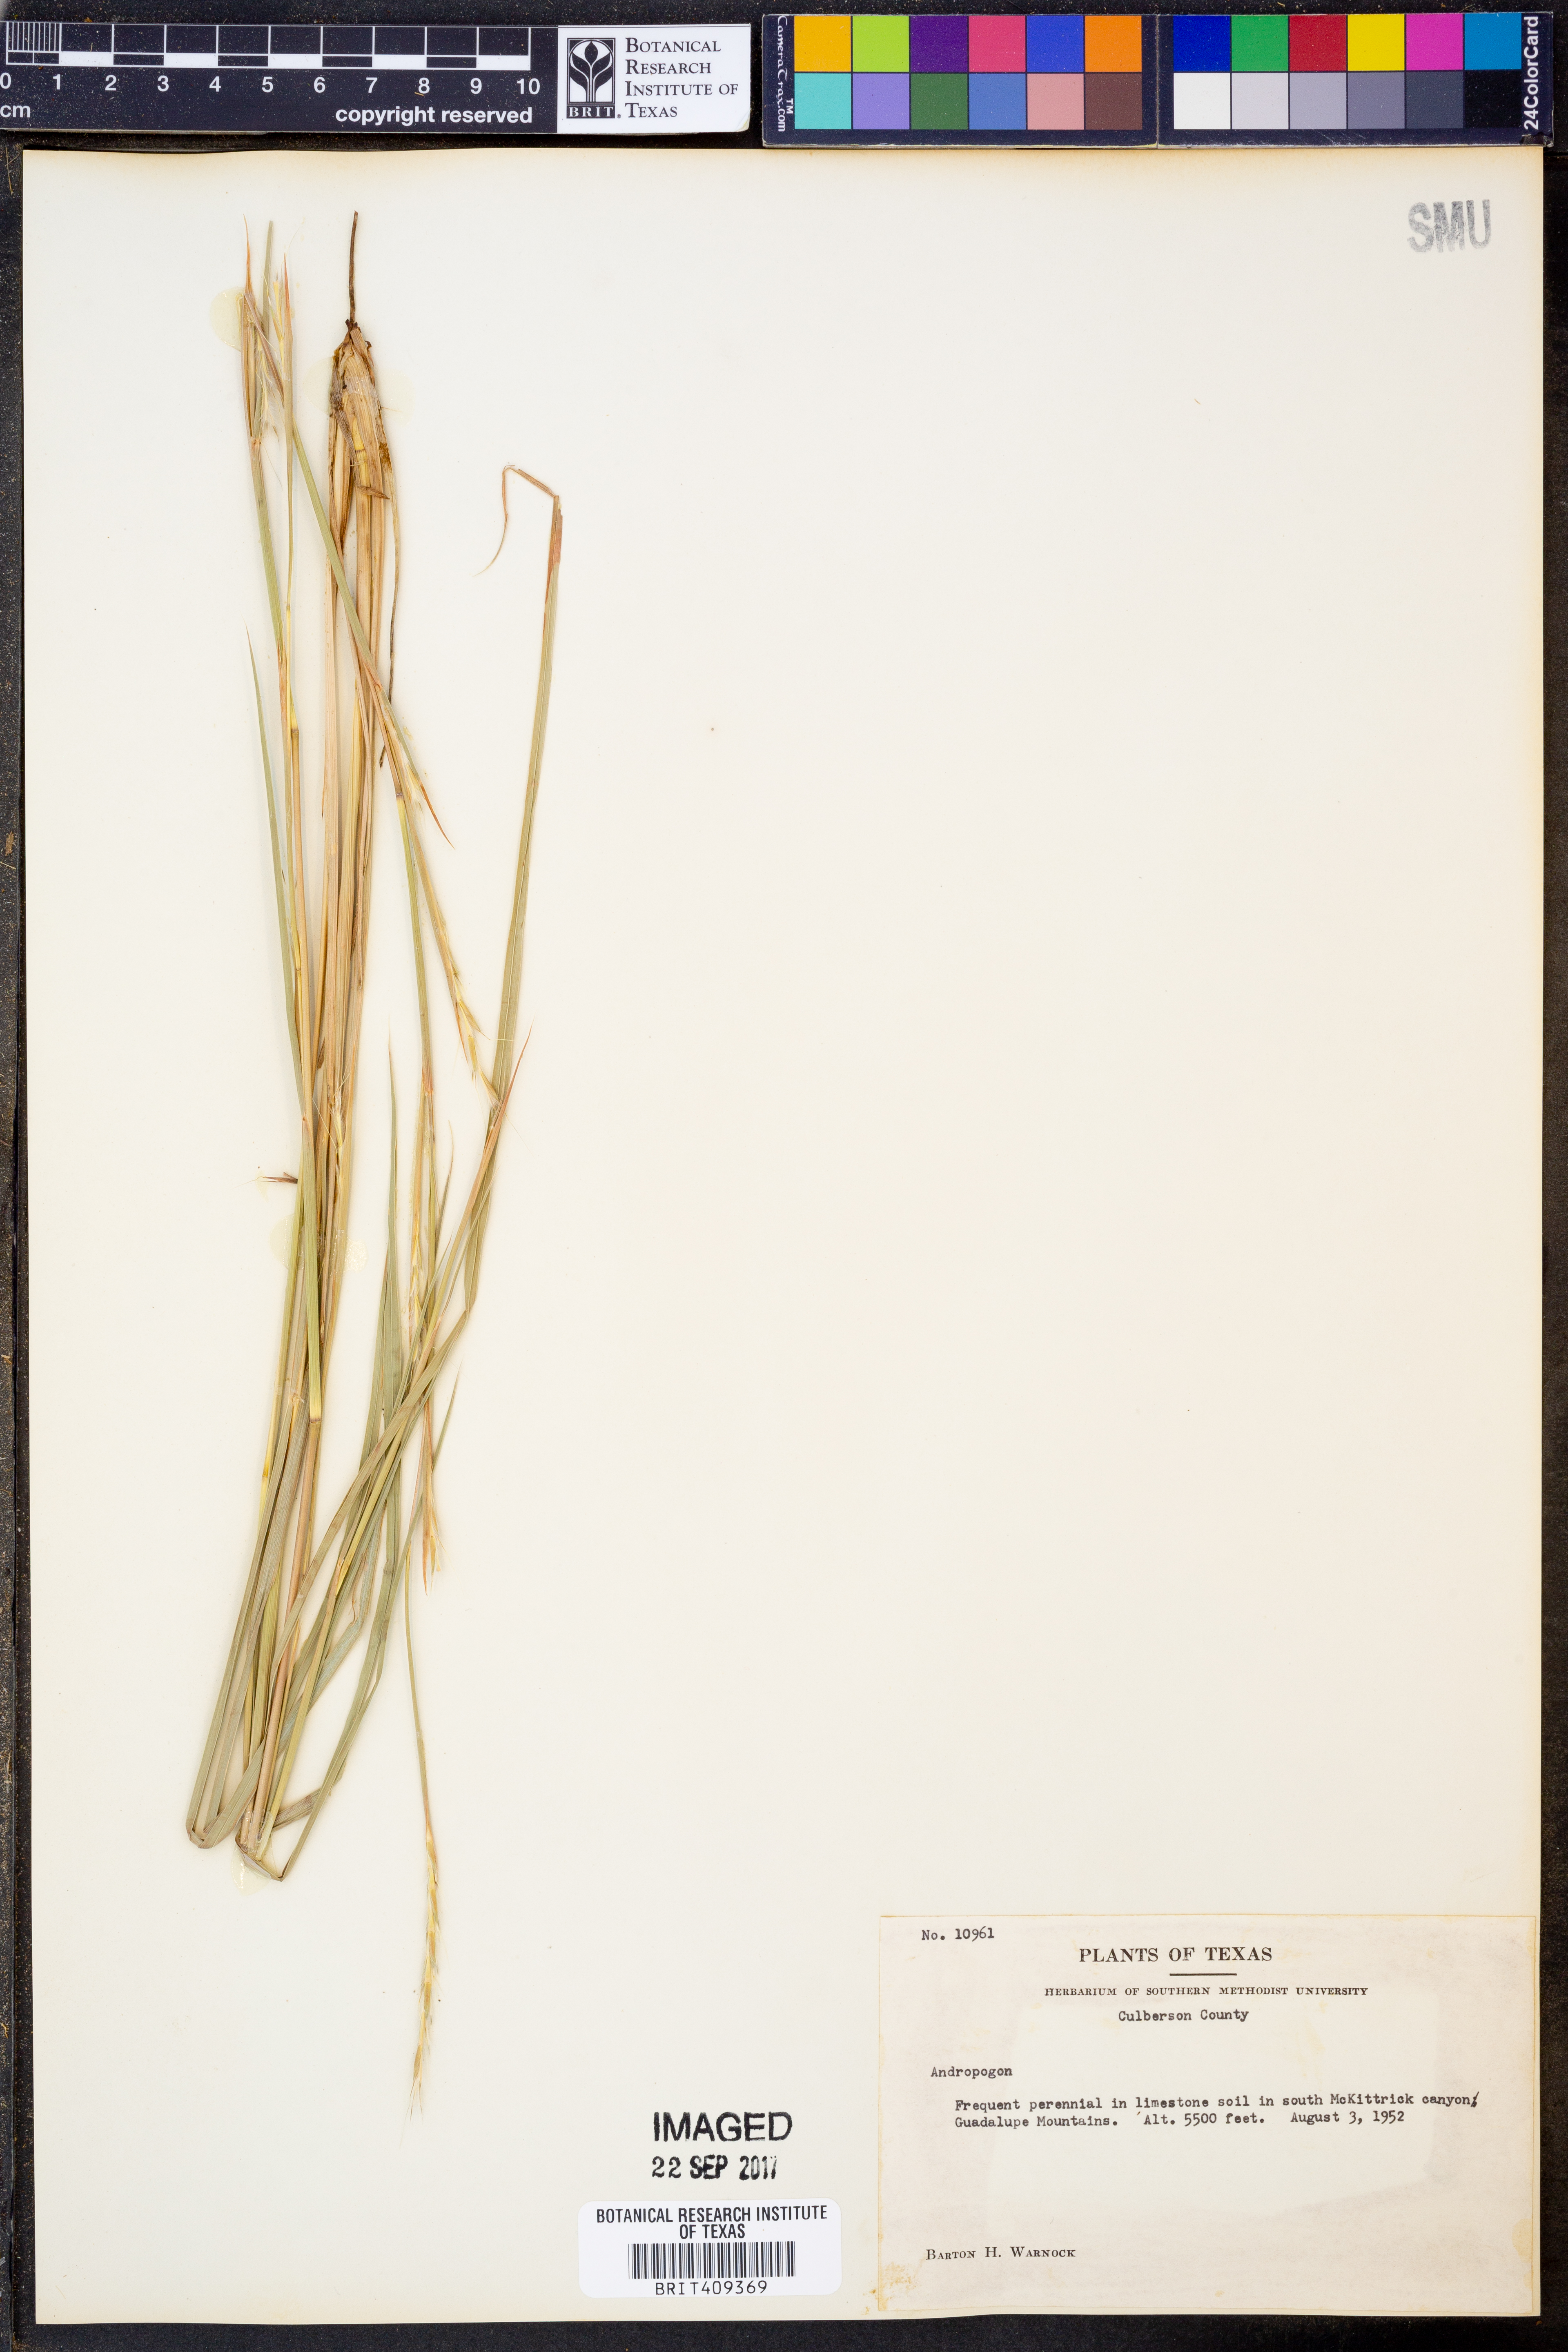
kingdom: Plantae
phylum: Tracheophyta
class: Liliopsida
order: Poales
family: Poaceae
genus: Andropogon
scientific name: Andropogon
